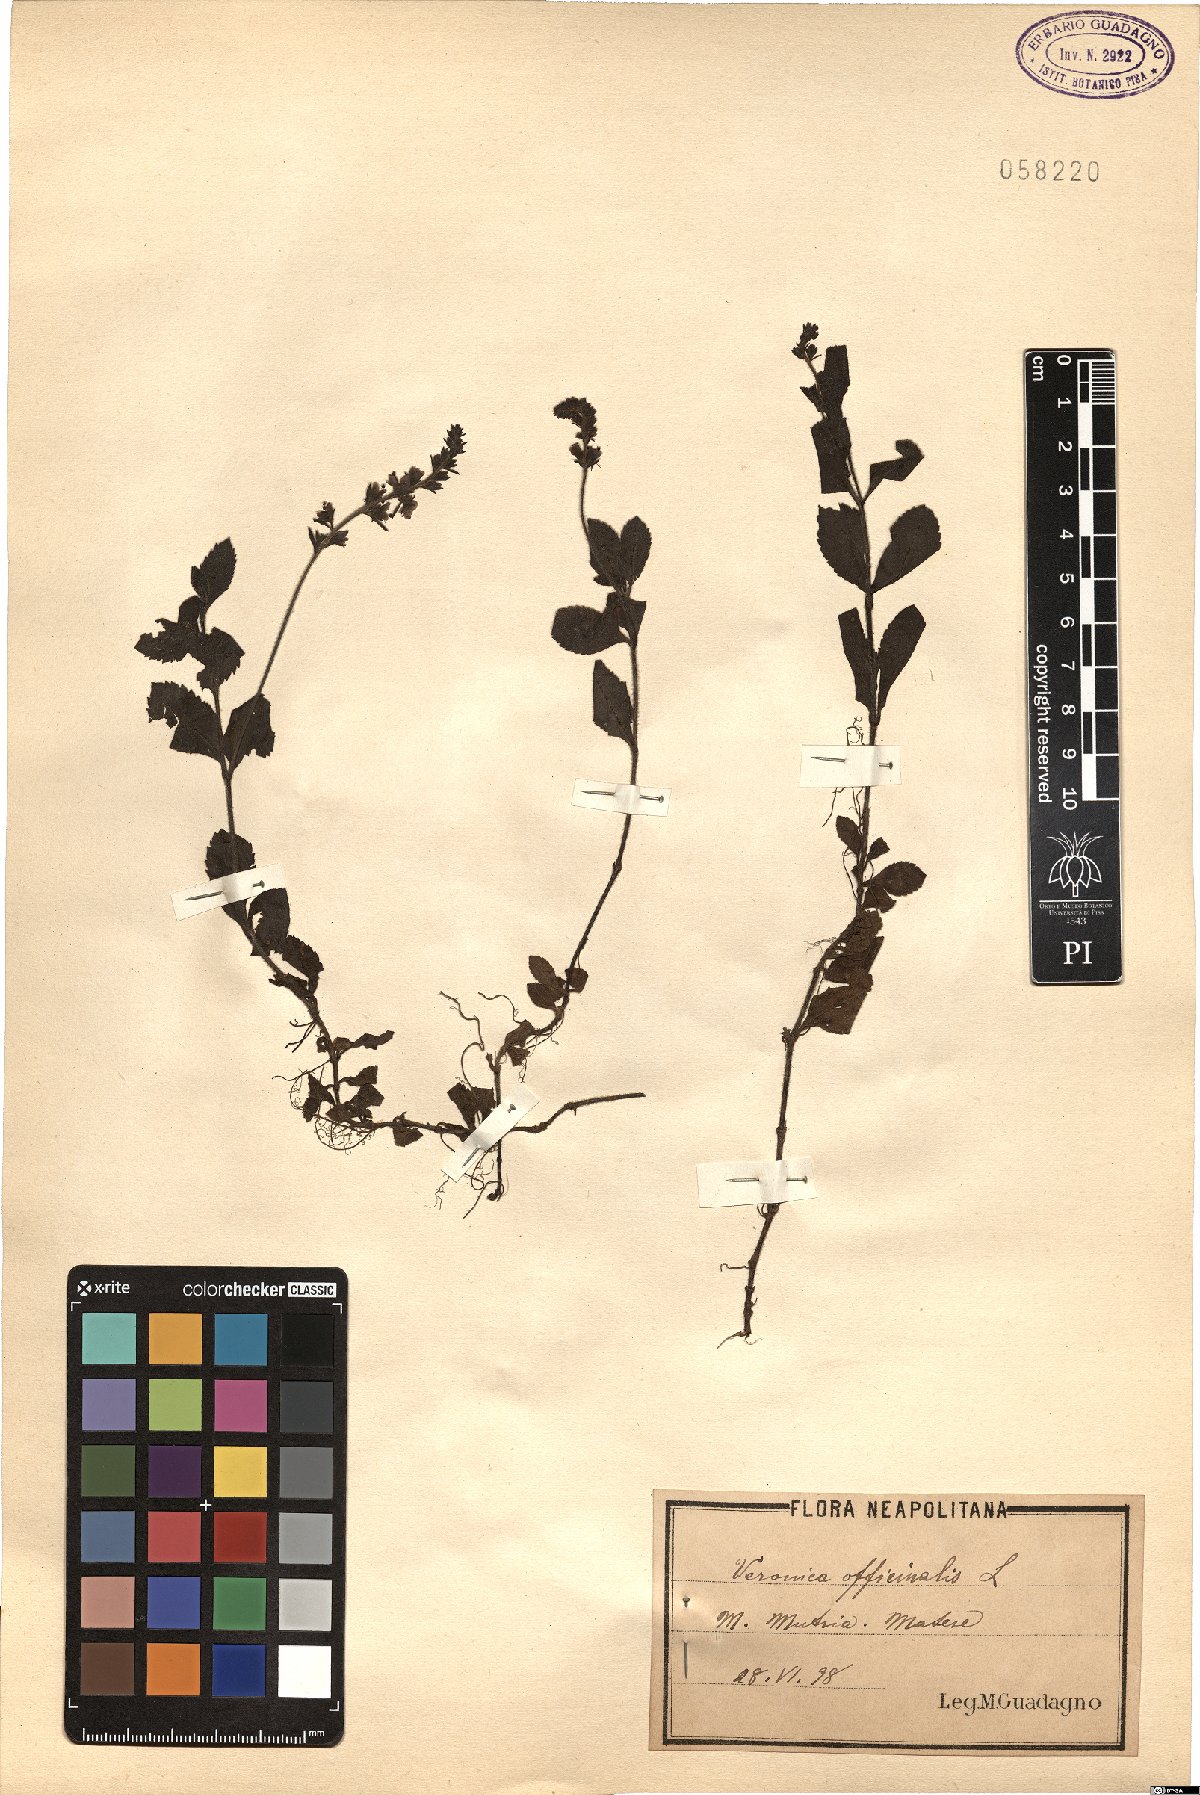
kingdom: Plantae
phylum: Tracheophyta
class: Magnoliopsida
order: Lamiales
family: Plantaginaceae
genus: Veronica
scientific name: Veronica officinalis
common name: Common speedwell
